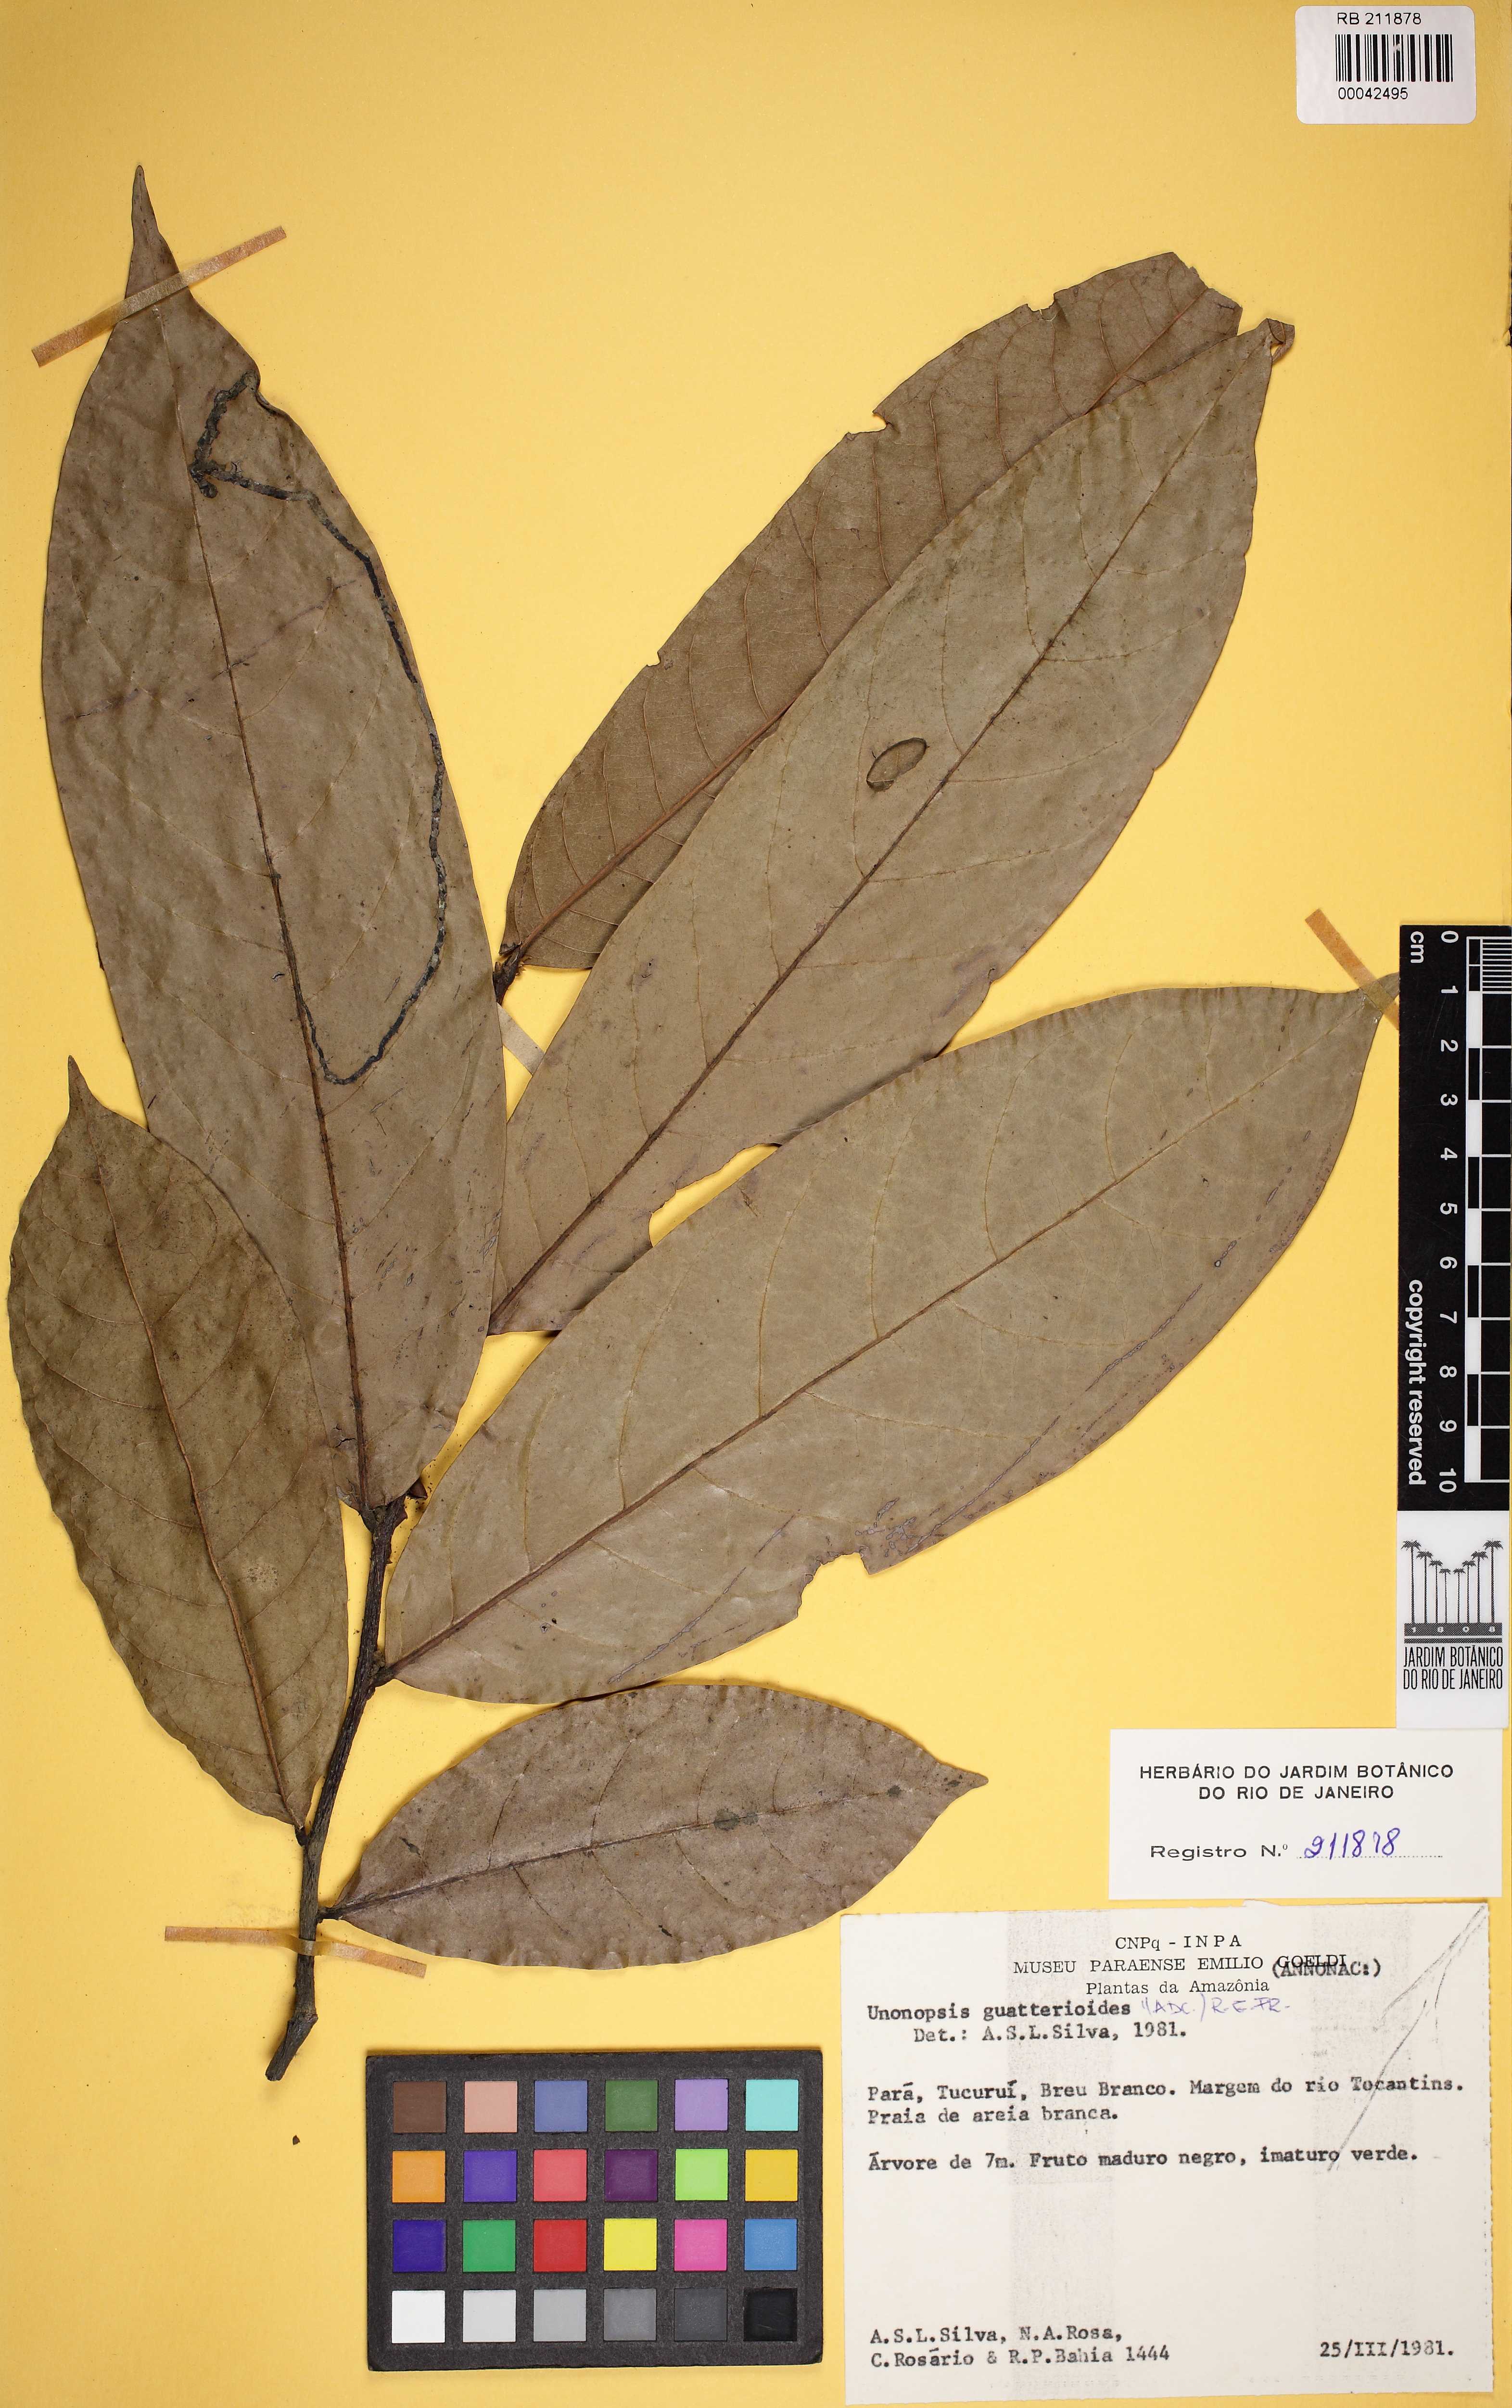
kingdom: Plantae
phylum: Tracheophyta
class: Magnoliopsida
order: Magnoliales
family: Annonaceae
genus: Unonopsis
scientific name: Unonopsis guatterioides
